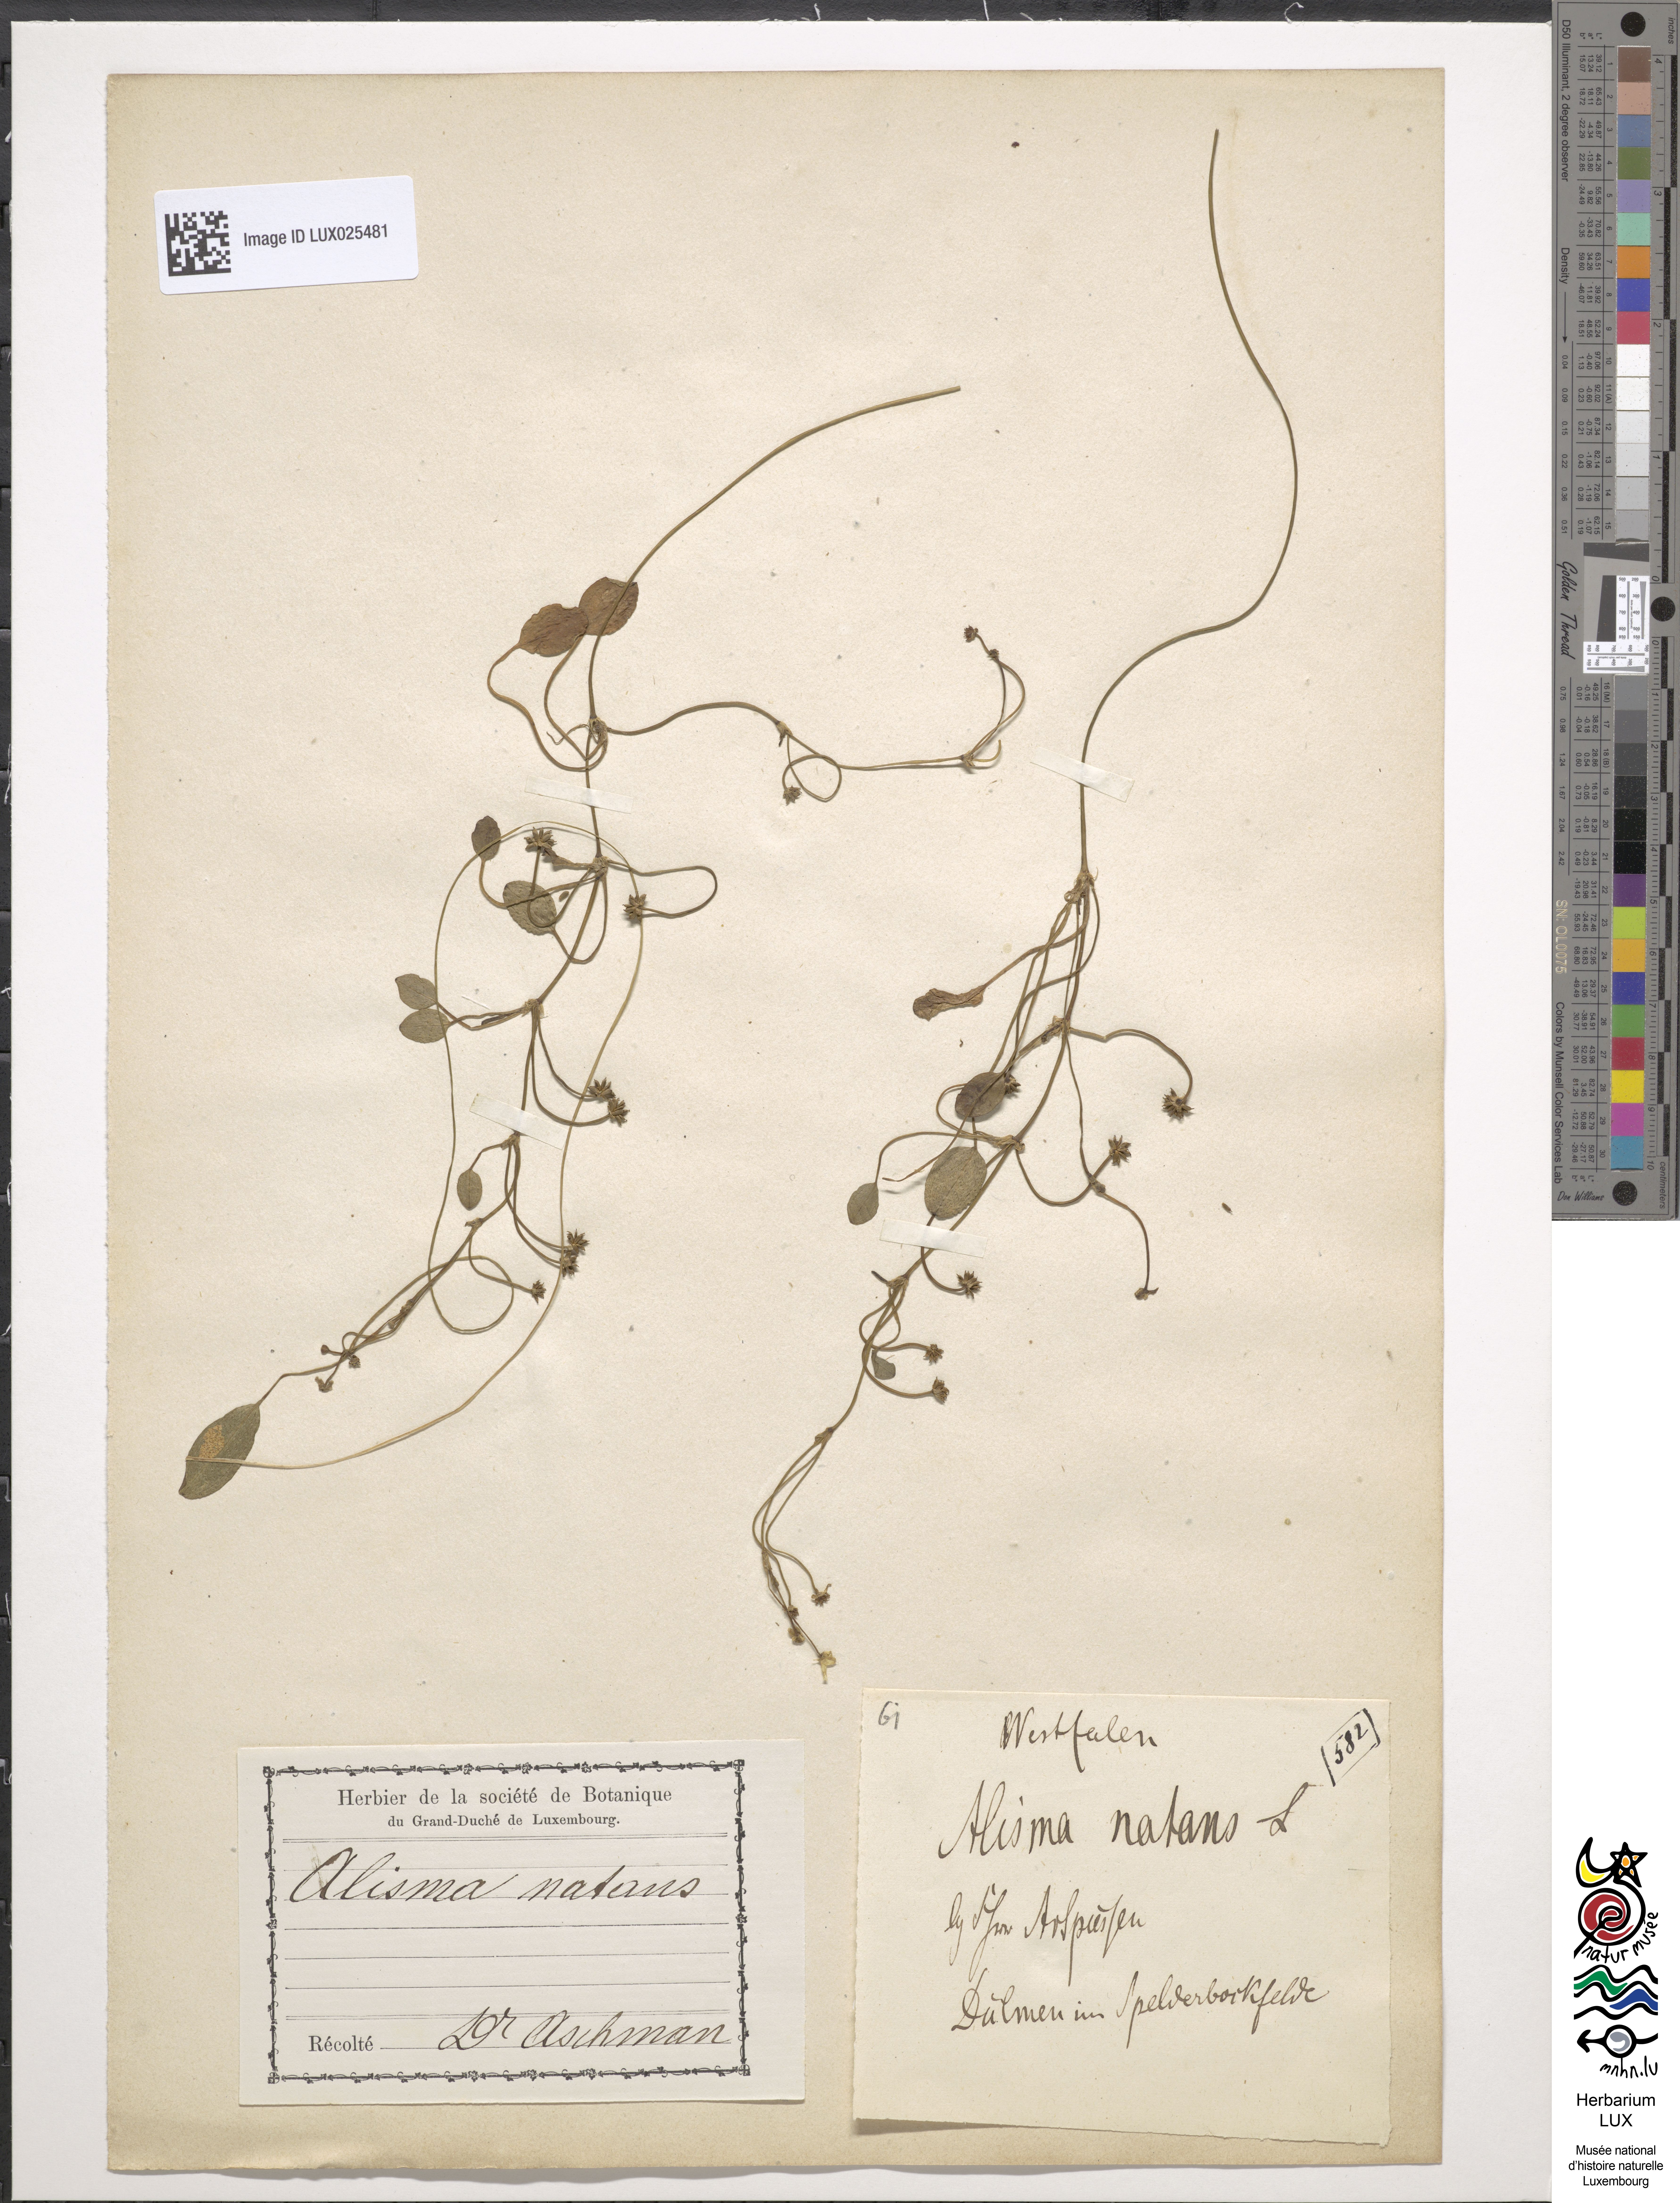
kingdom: Plantae
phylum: Tracheophyta
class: Liliopsida
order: Alismatales
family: Alismataceae
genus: Luronium
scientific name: Luronium natans
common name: Floating water-plantain
